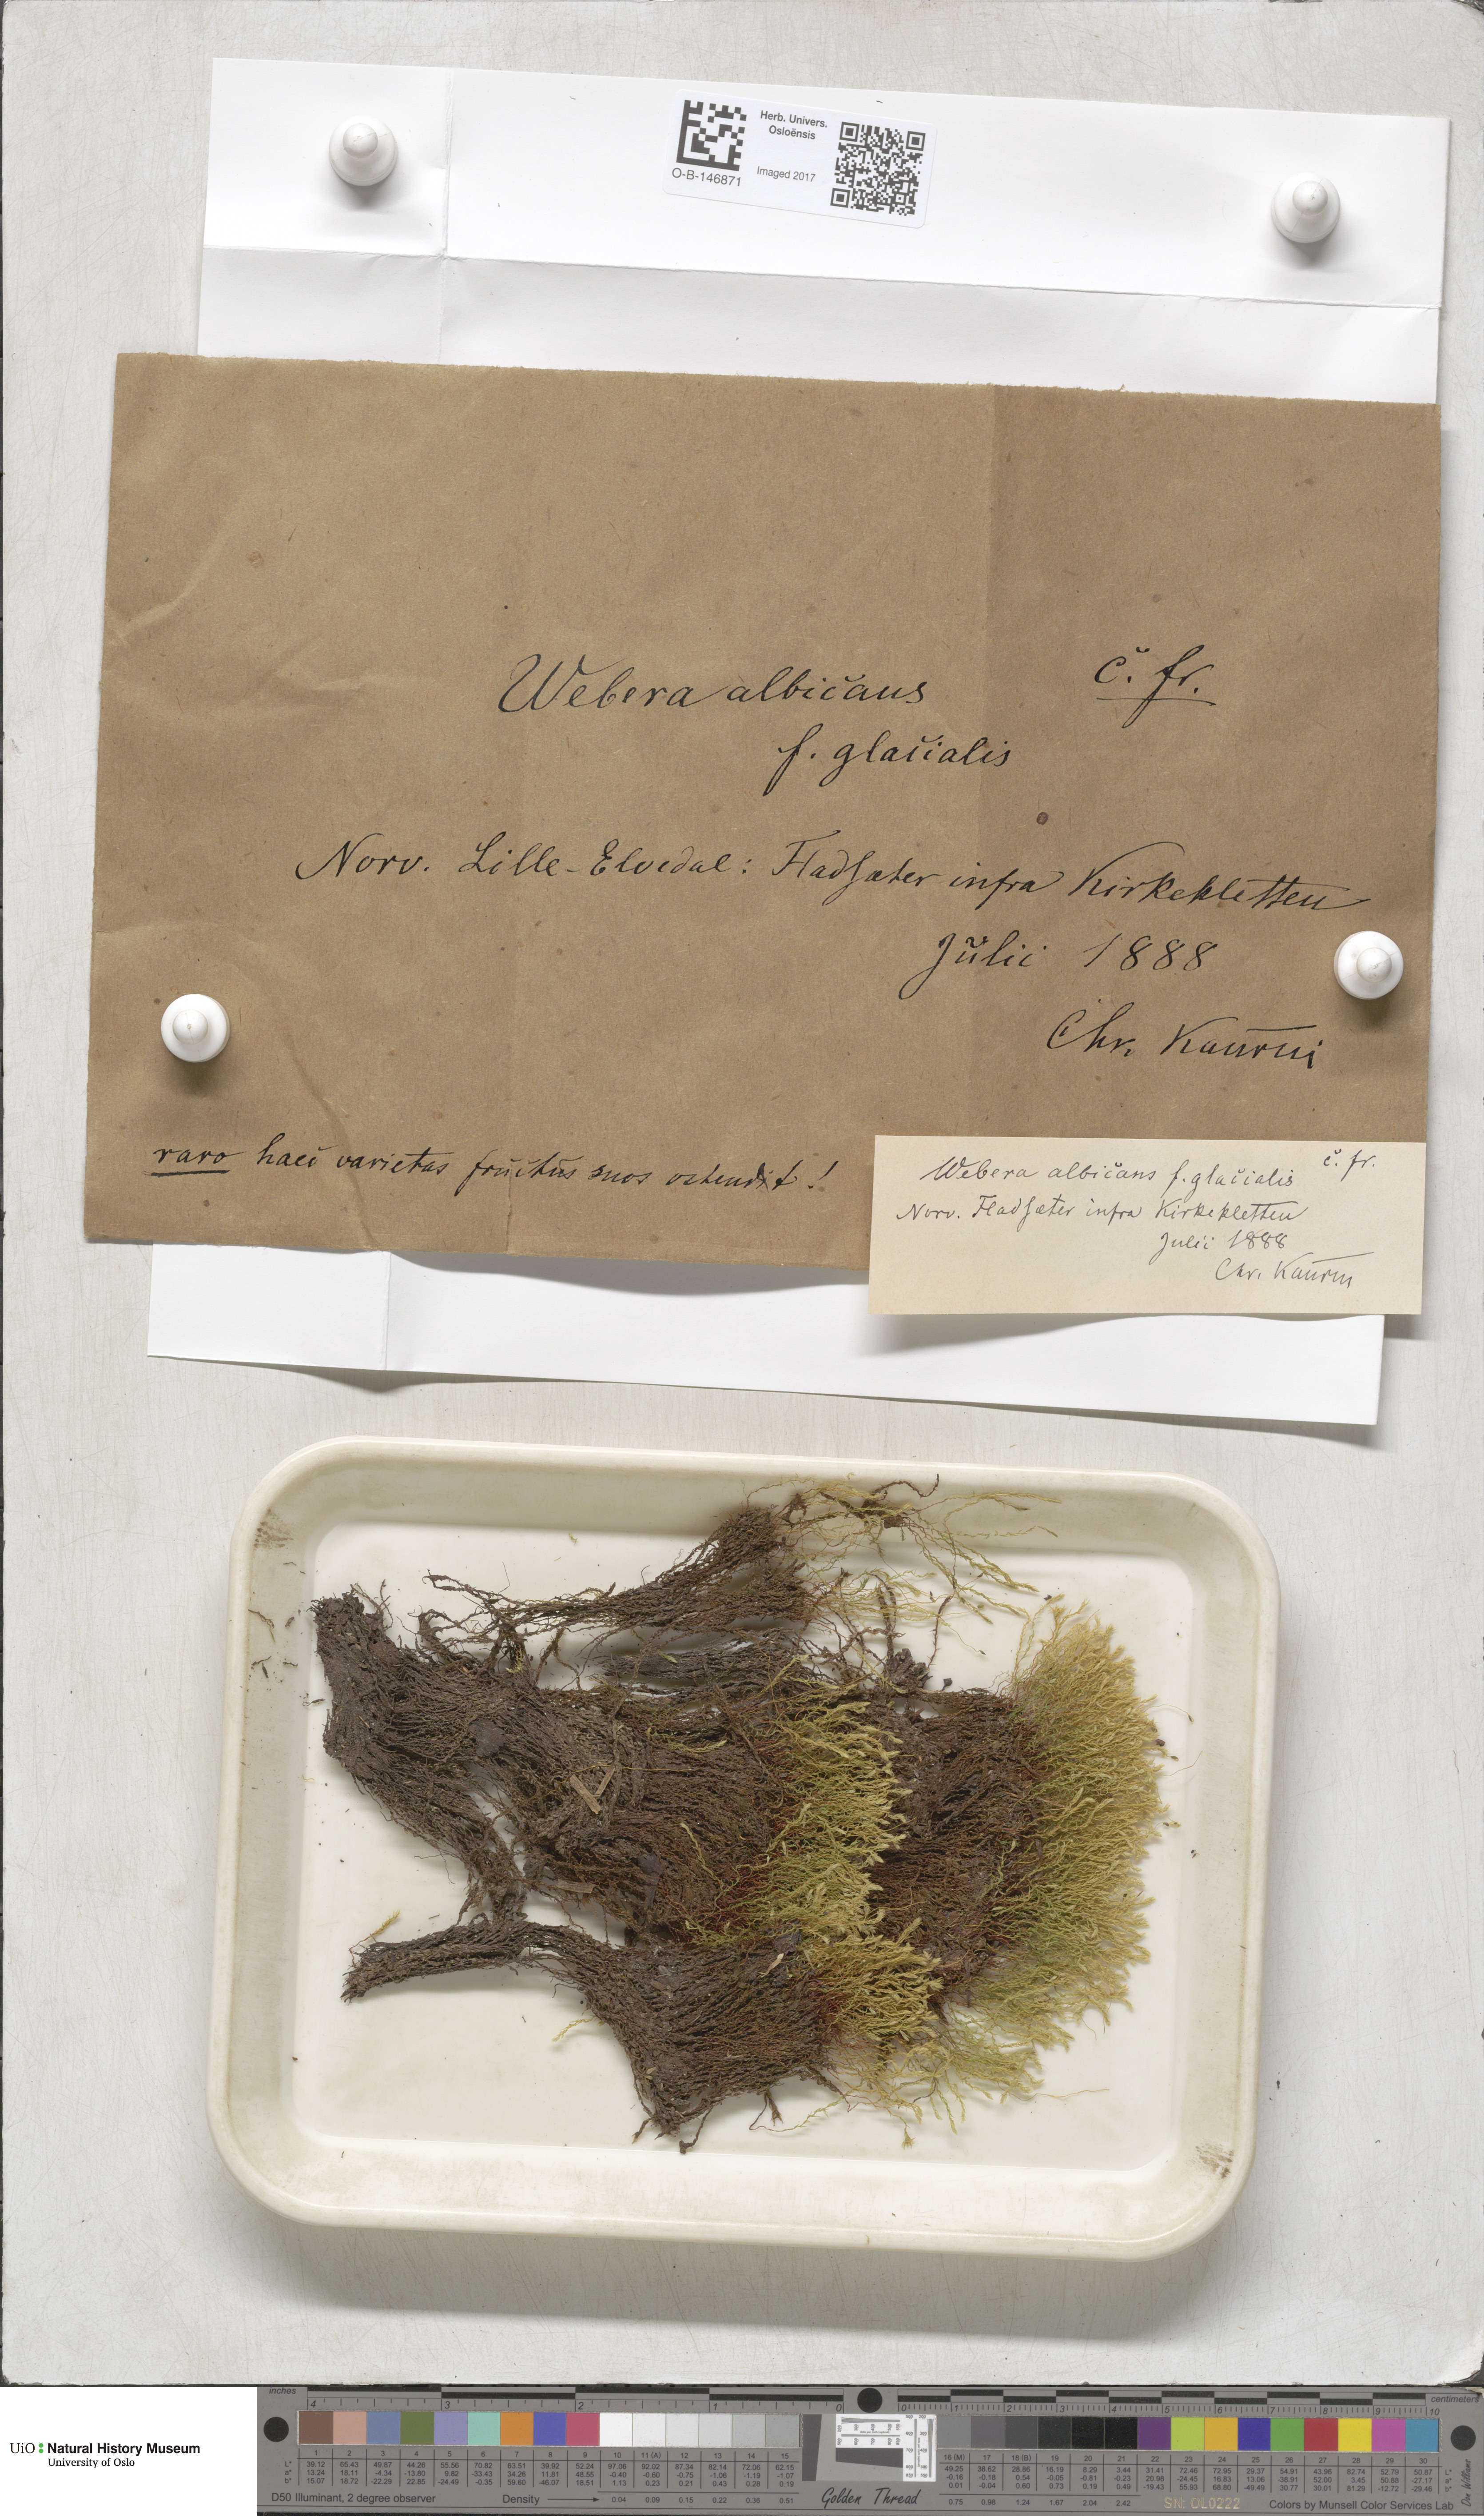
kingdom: Plantae
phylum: Bryophyta
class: Bryopsida
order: Bryales
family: Mniaceae
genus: Pohlia
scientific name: Pohlia wahlenbergii
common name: Wahlenberg's nodding moss
